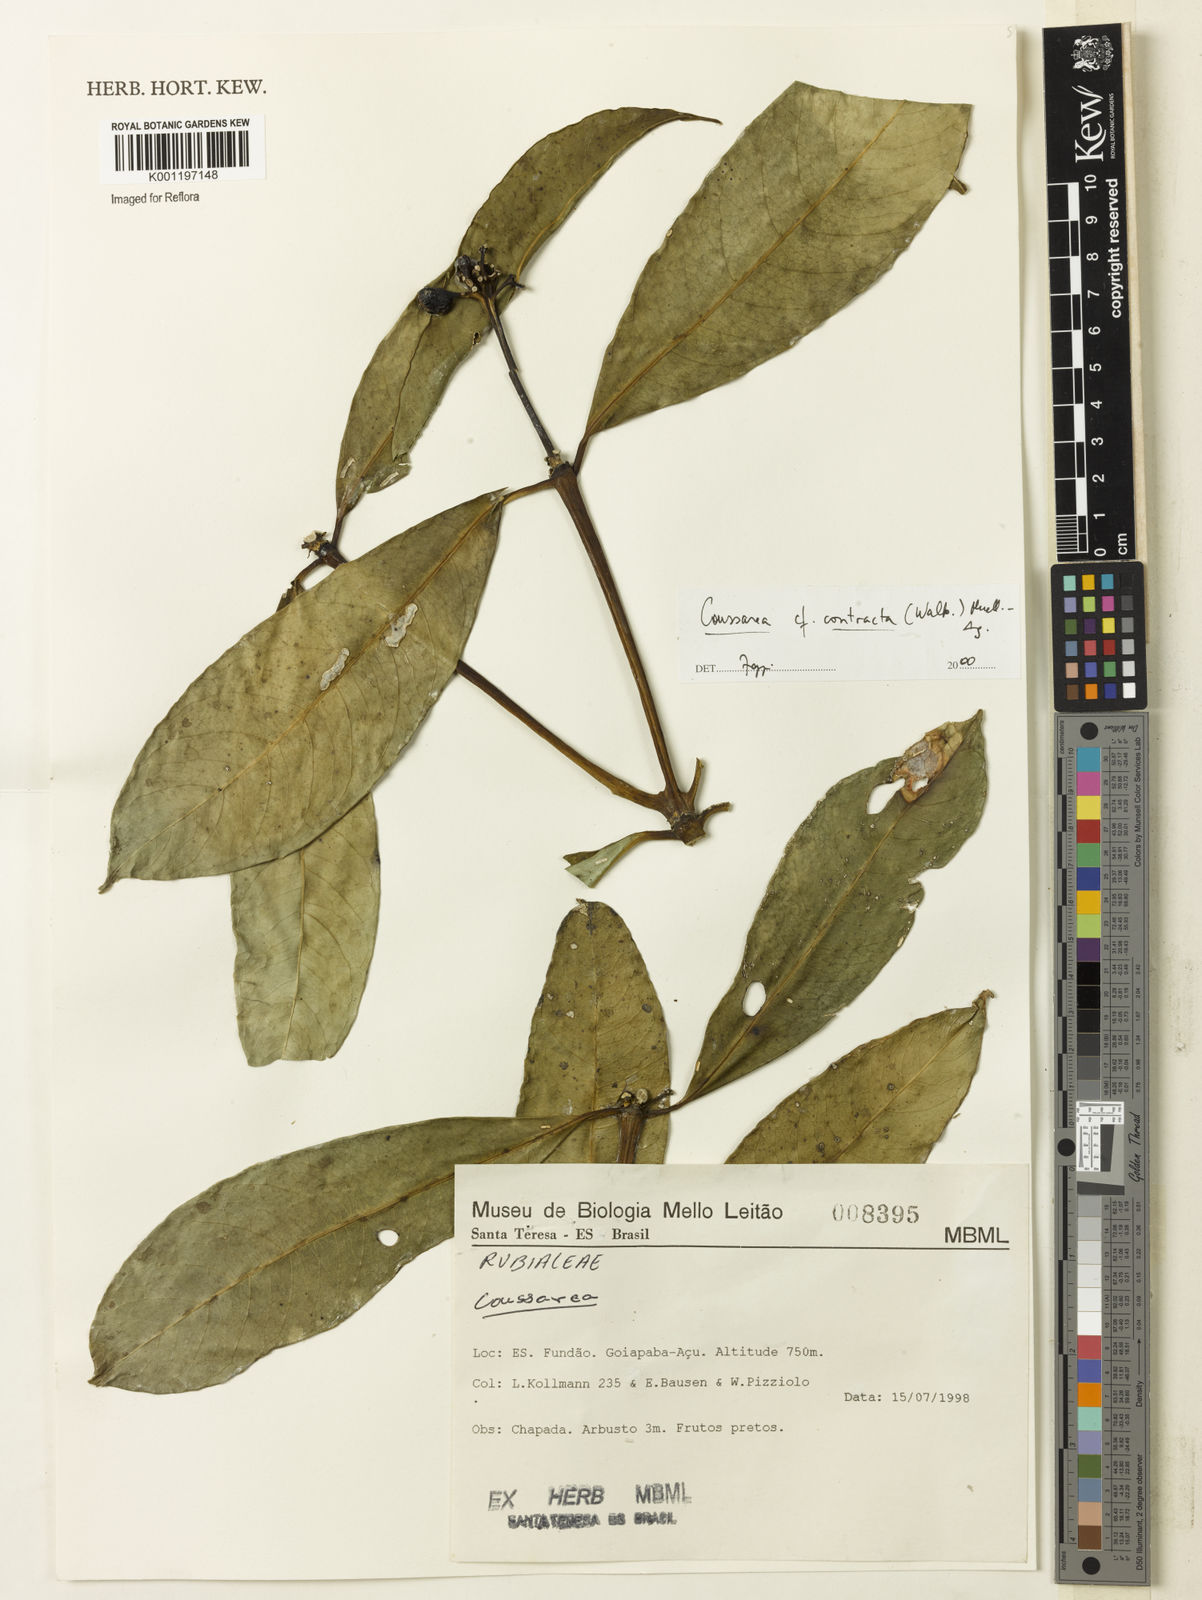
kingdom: Plantae
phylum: Tracheophyta
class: Magnoliopsida
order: Gentianales
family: Rubiaceae
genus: Coussarea
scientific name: Coussarea
